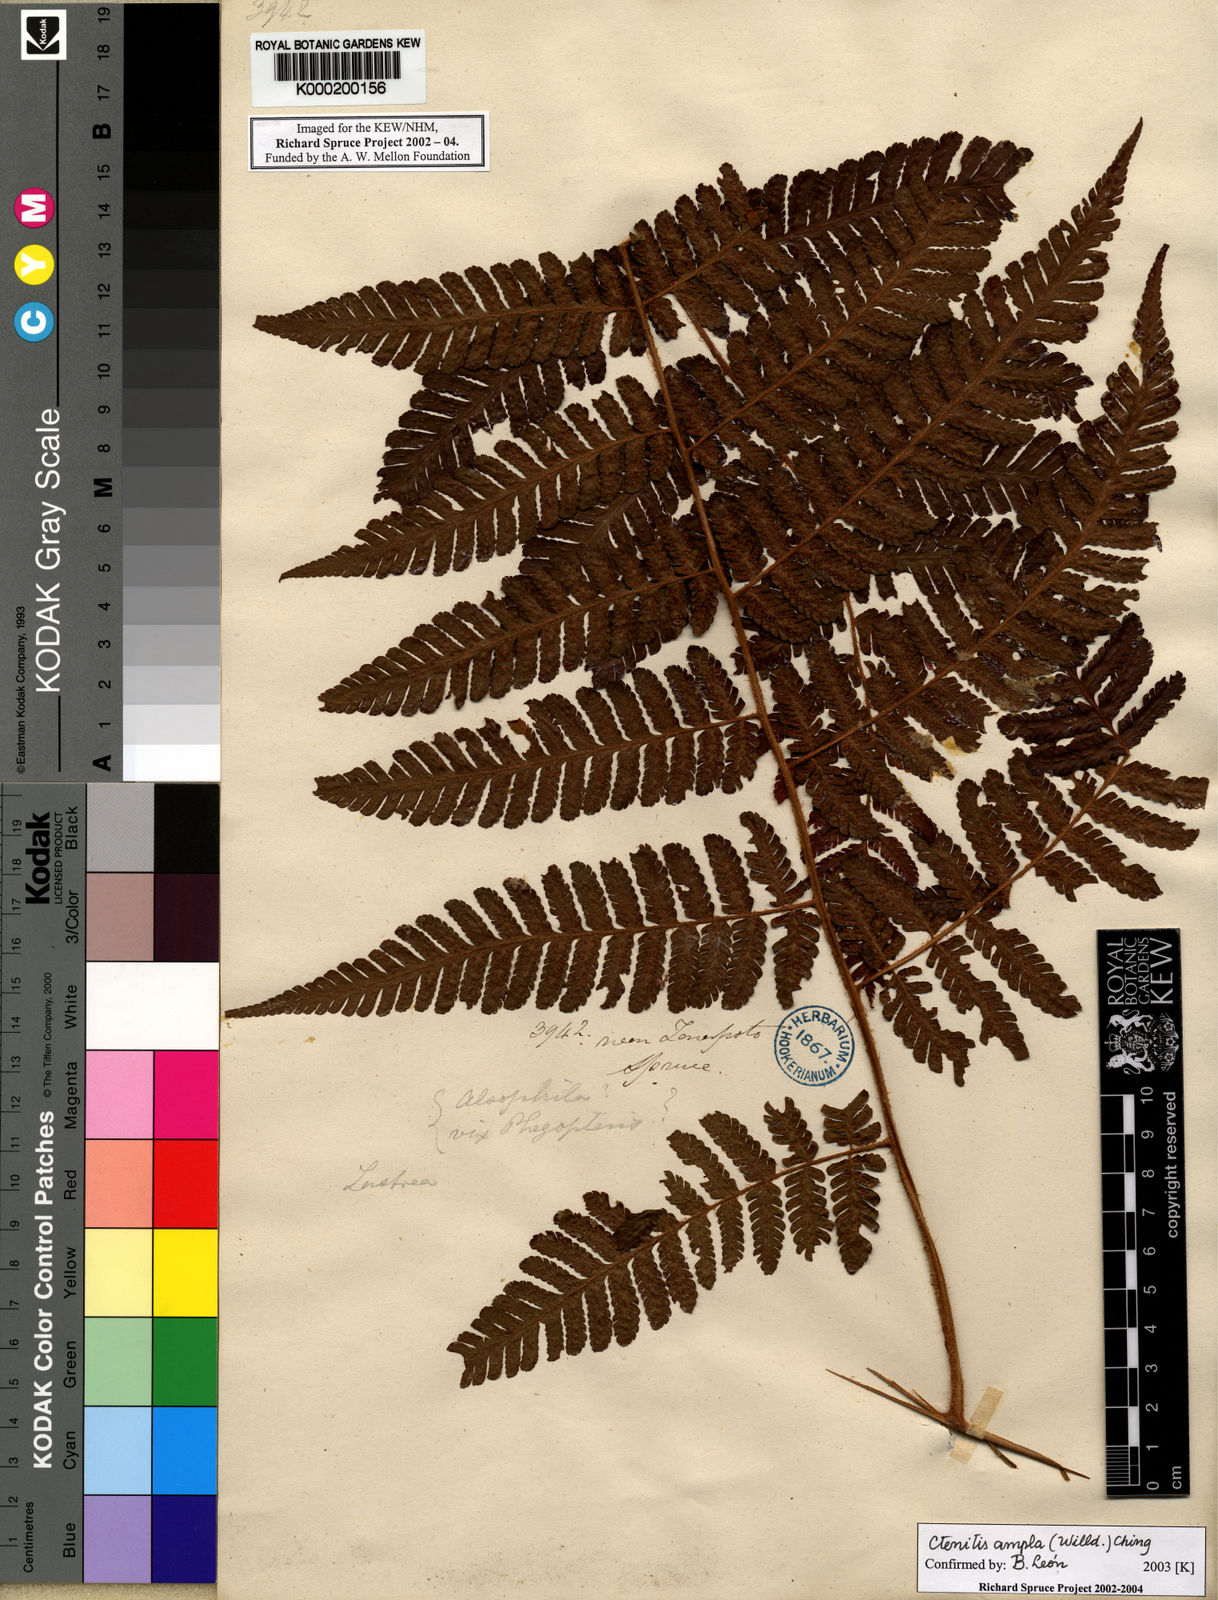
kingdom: Plantae
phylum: Tracheophyta
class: Polypodiopsida
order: Polypodiales
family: Dryopteridaceae
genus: Ctenitis
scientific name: Ctenitis sloanei
